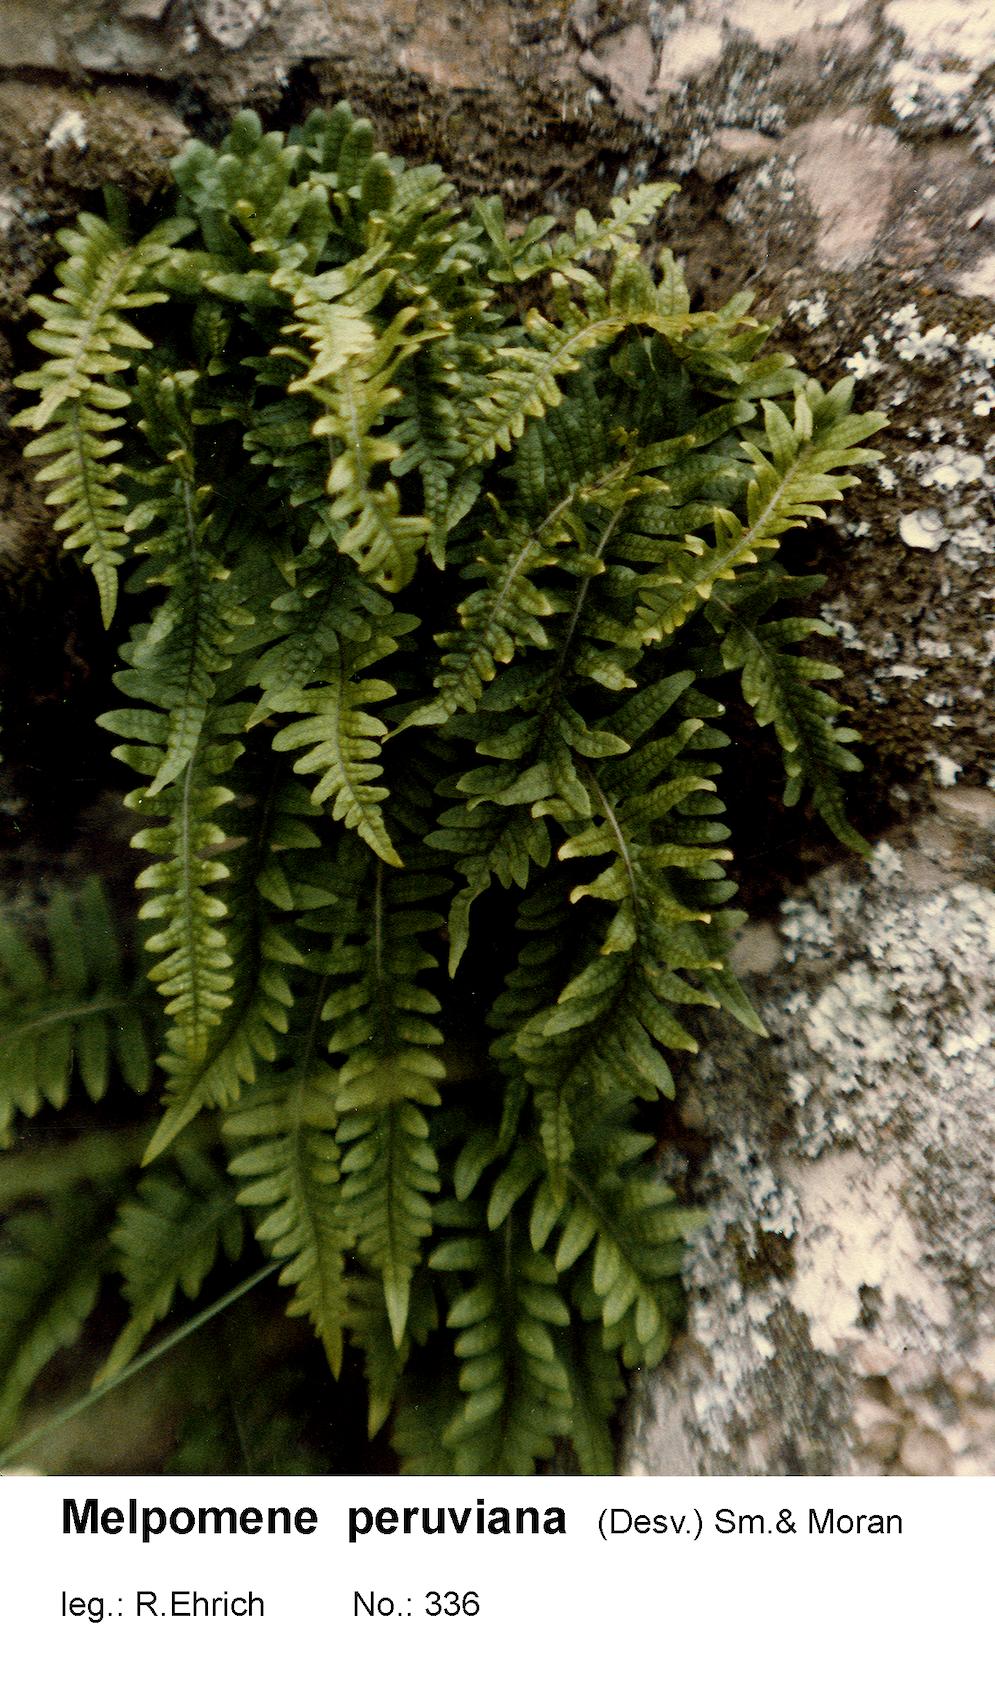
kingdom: Plantae
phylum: Tracheophyta
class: Polypodiopsida
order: Polypodiales
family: Polypodiaceae
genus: Melpomene
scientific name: Melpomene peruviana
